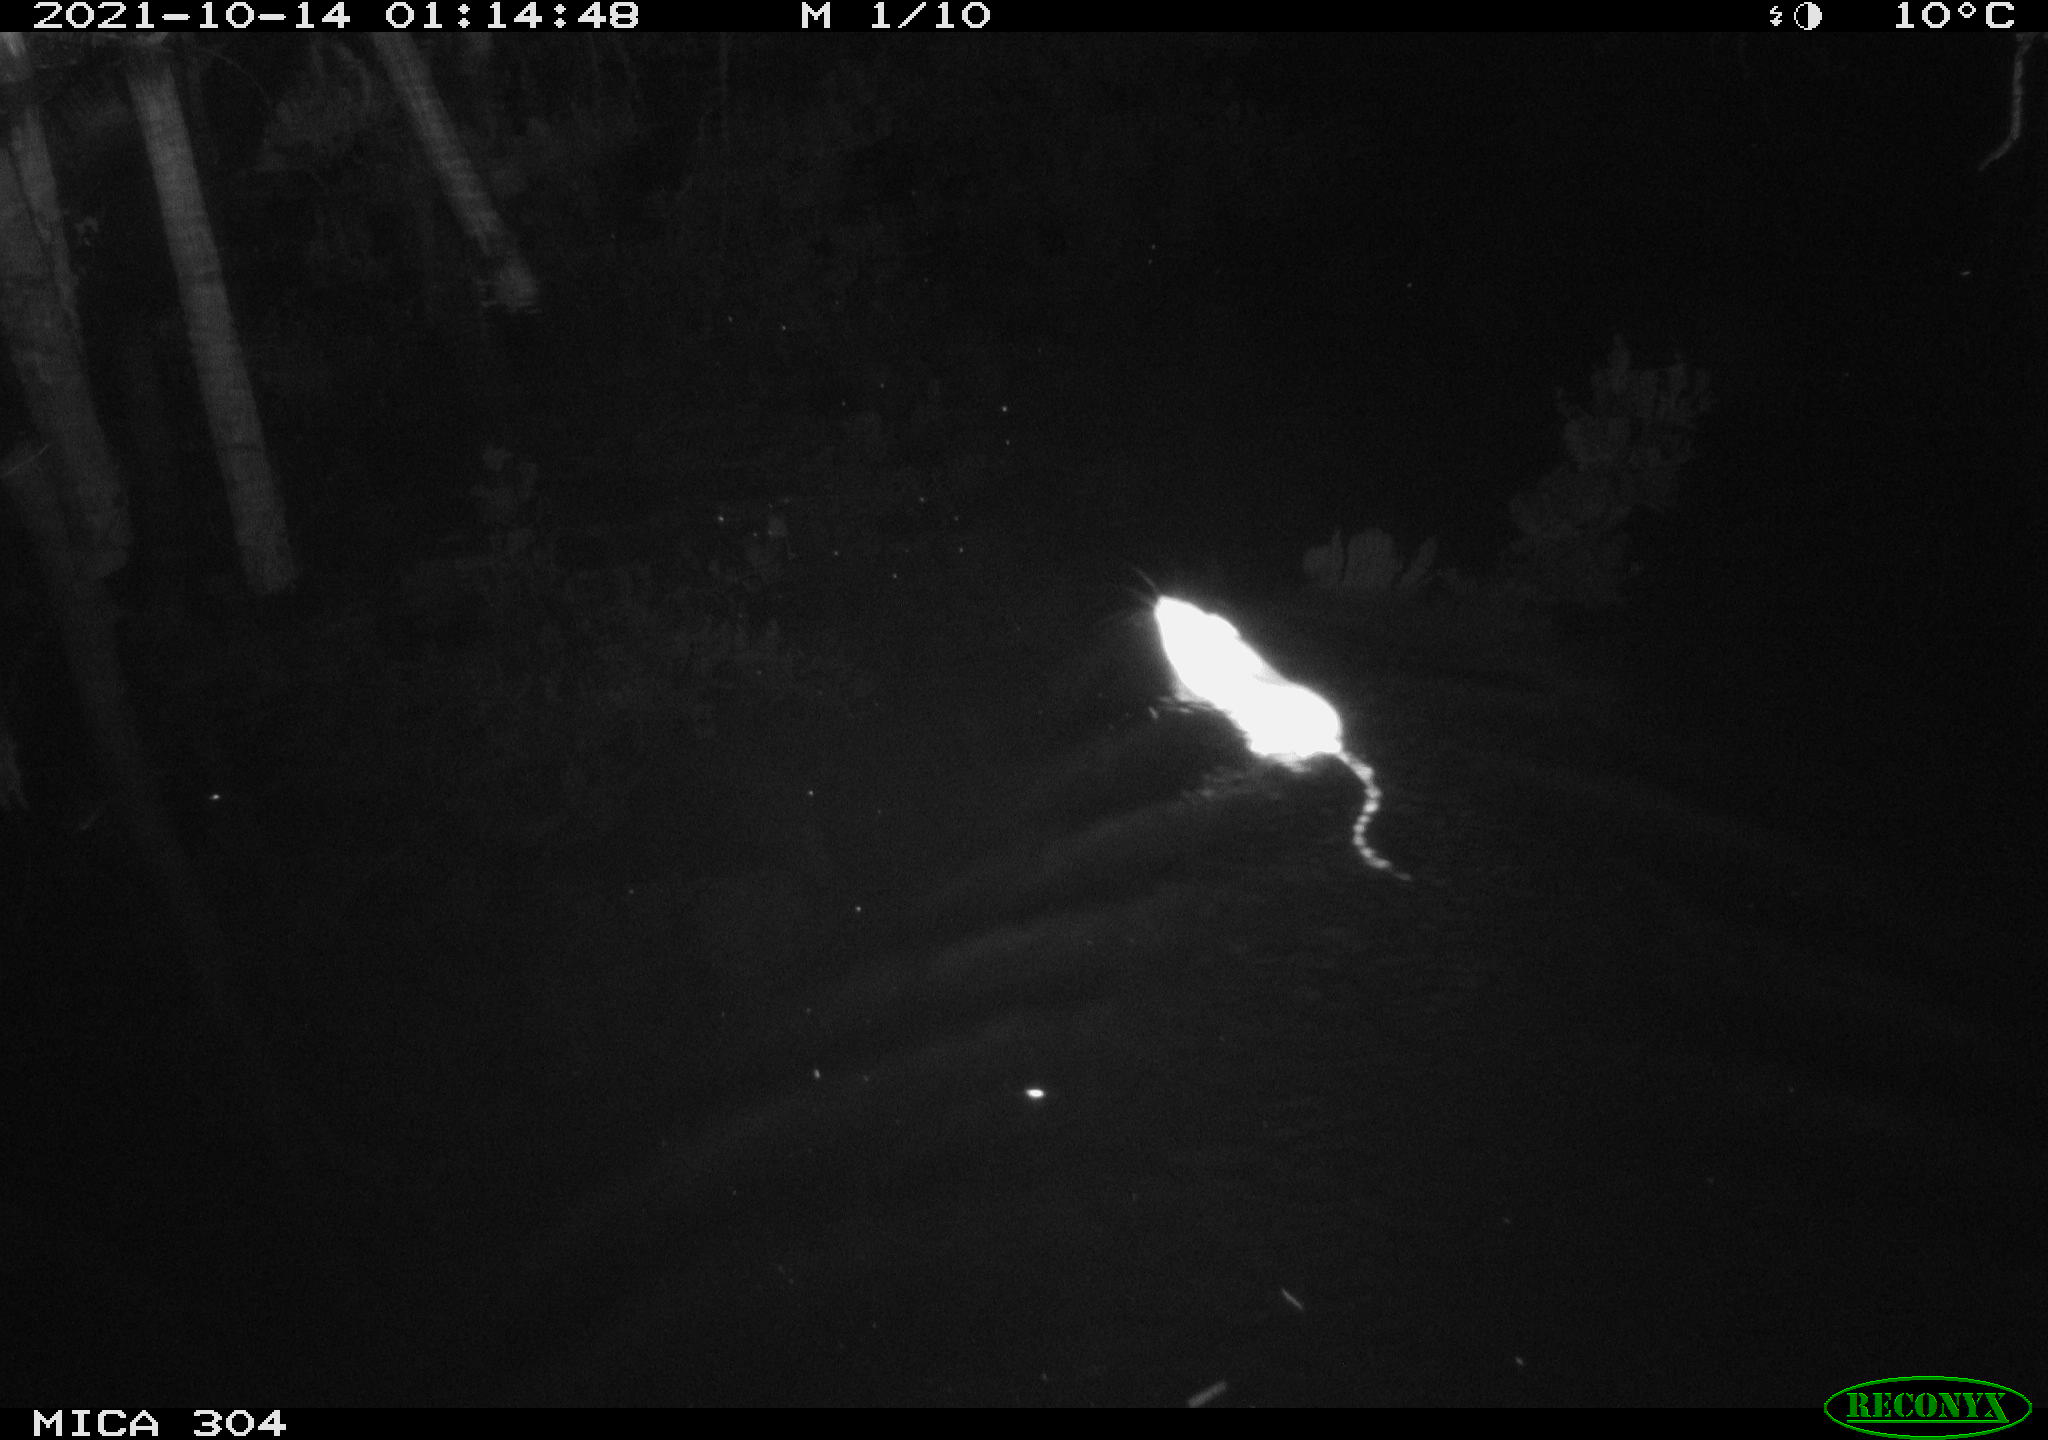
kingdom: Animalia
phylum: Chordata
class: Mammalia
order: Rodentia
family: Muridae
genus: Rattus
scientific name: Rattus norvegicus
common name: Brown rat
